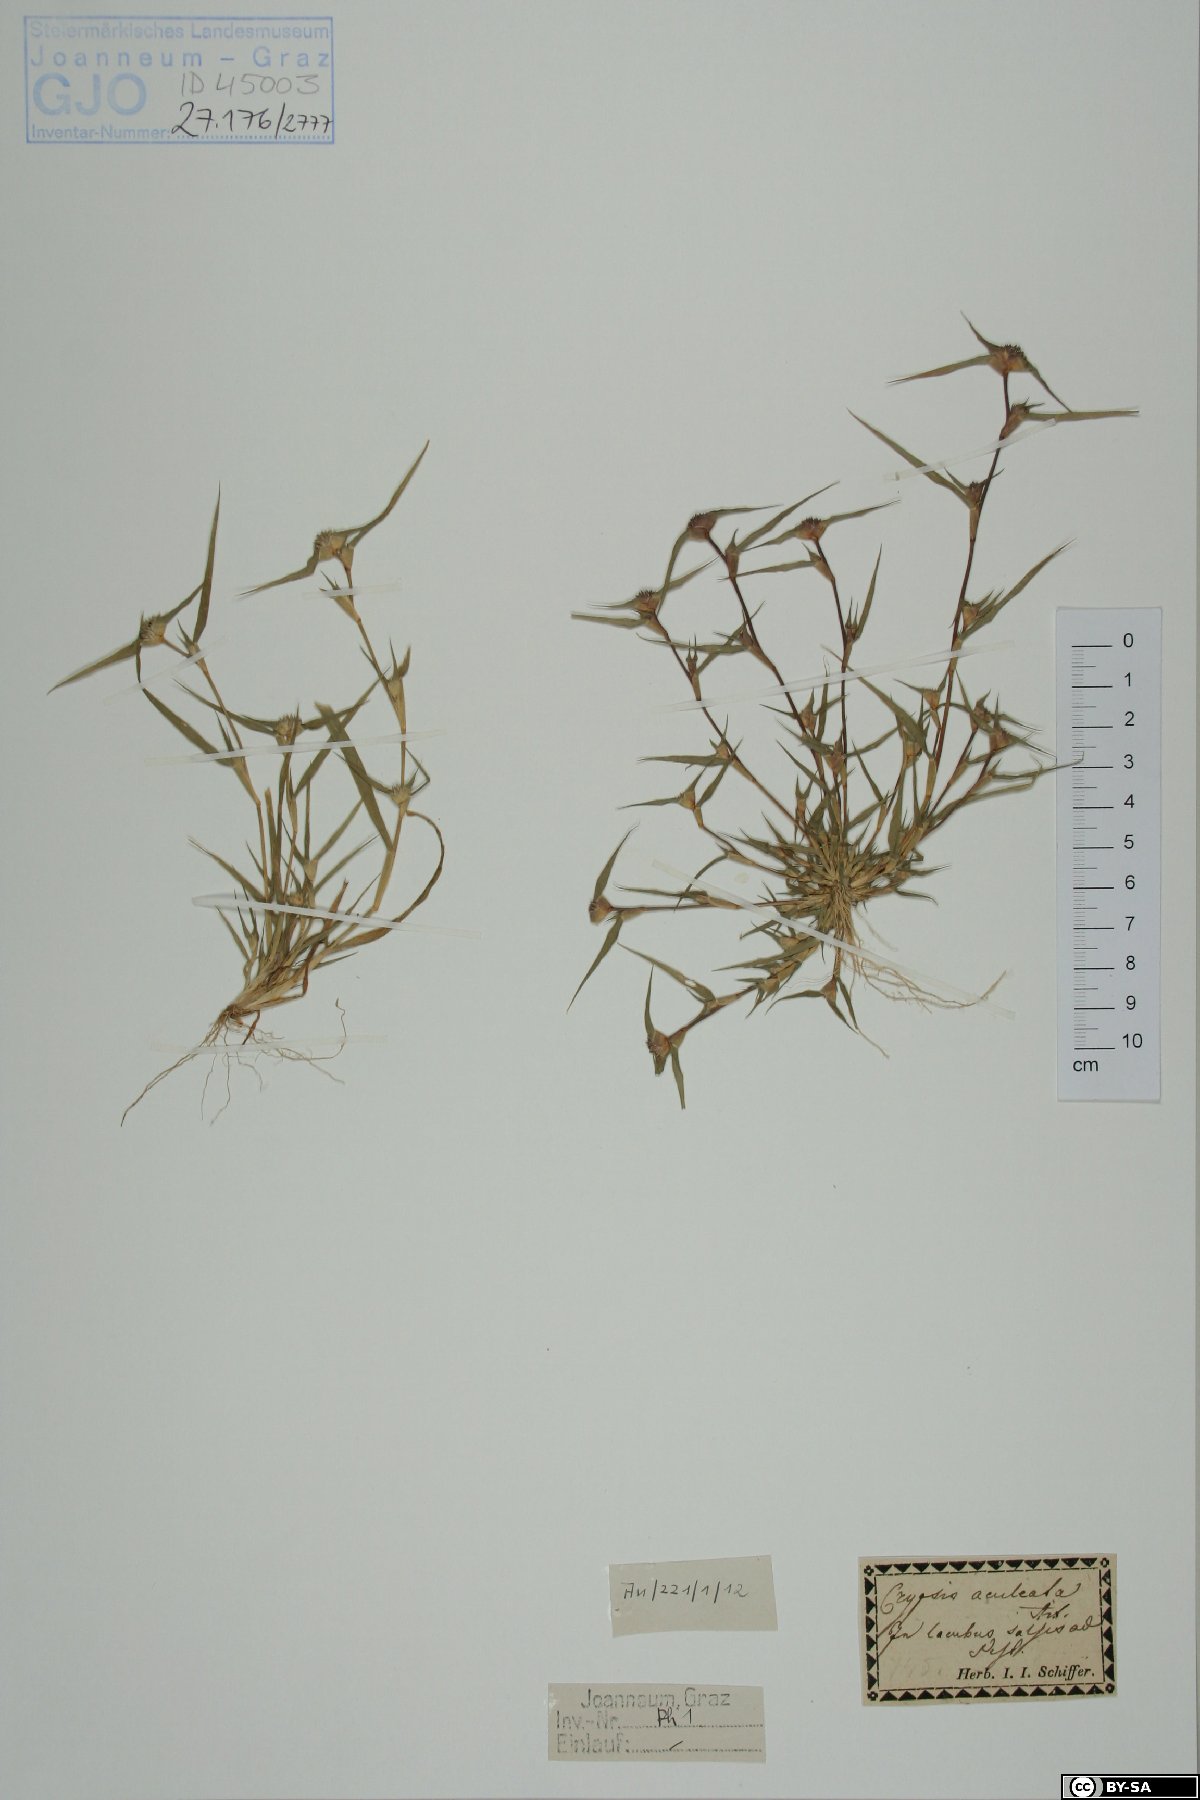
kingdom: Plantae
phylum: Tracheophyta
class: Liliopsida
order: Poales
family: Poaceae
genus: Sporobolus
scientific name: Sporobolus aculeatus
